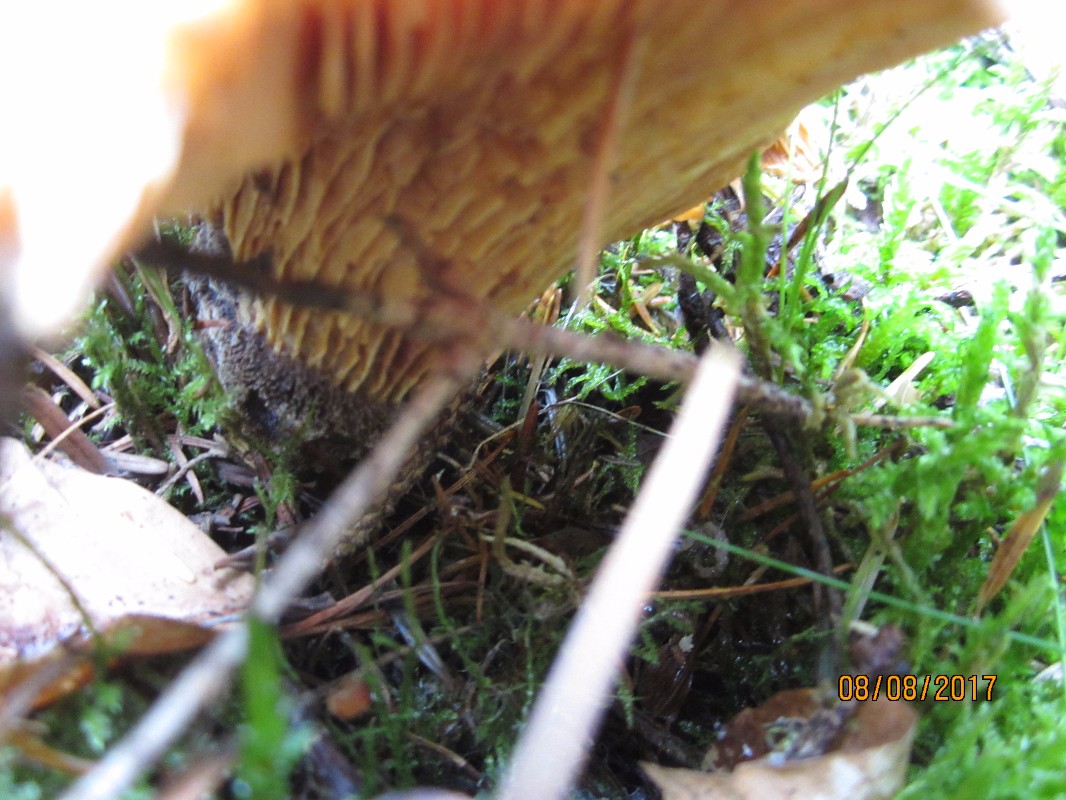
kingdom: Fungi
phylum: Basidiomycota
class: Agaricomycetes
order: Boletales
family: Tapinellaceae
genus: Tapinella
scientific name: Tapinella atrotomentosa
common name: sortfiltet viftesvamp
